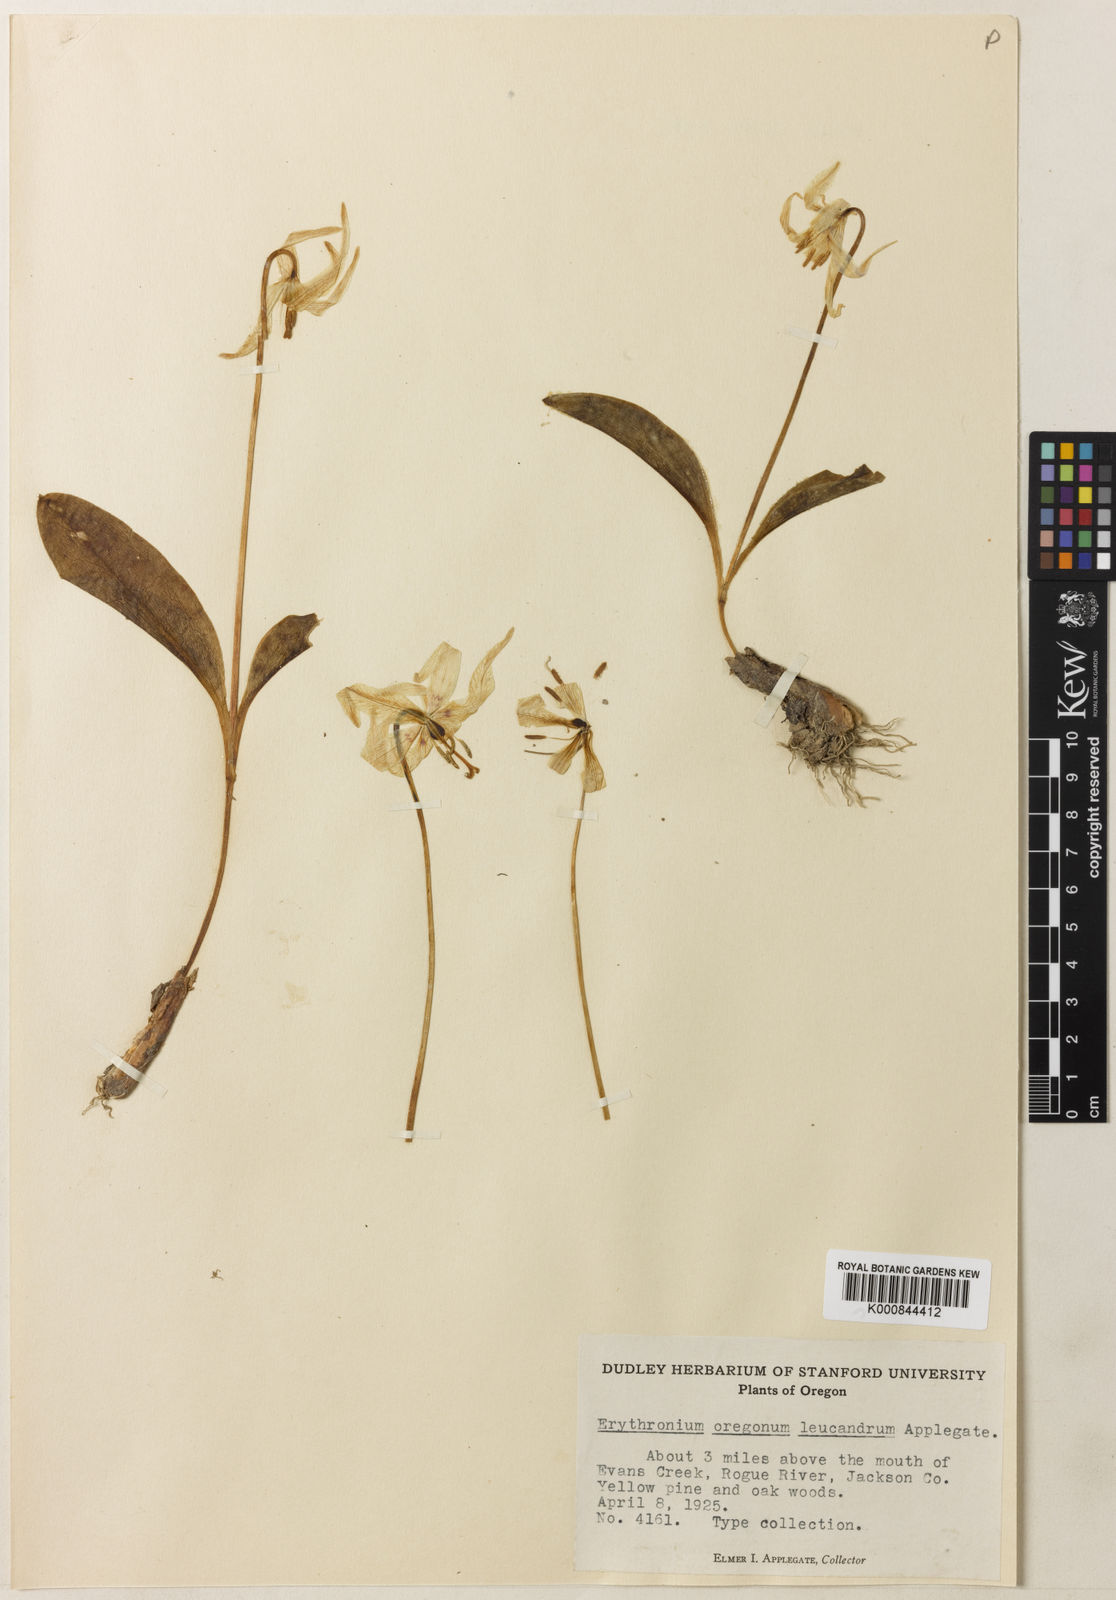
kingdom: Plantae
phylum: Tracheophyta
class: Liliopsida
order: Liliales
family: Liliaceae
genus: Erythronium
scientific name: Erythronium oregonum
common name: Giant adder's-tongue
